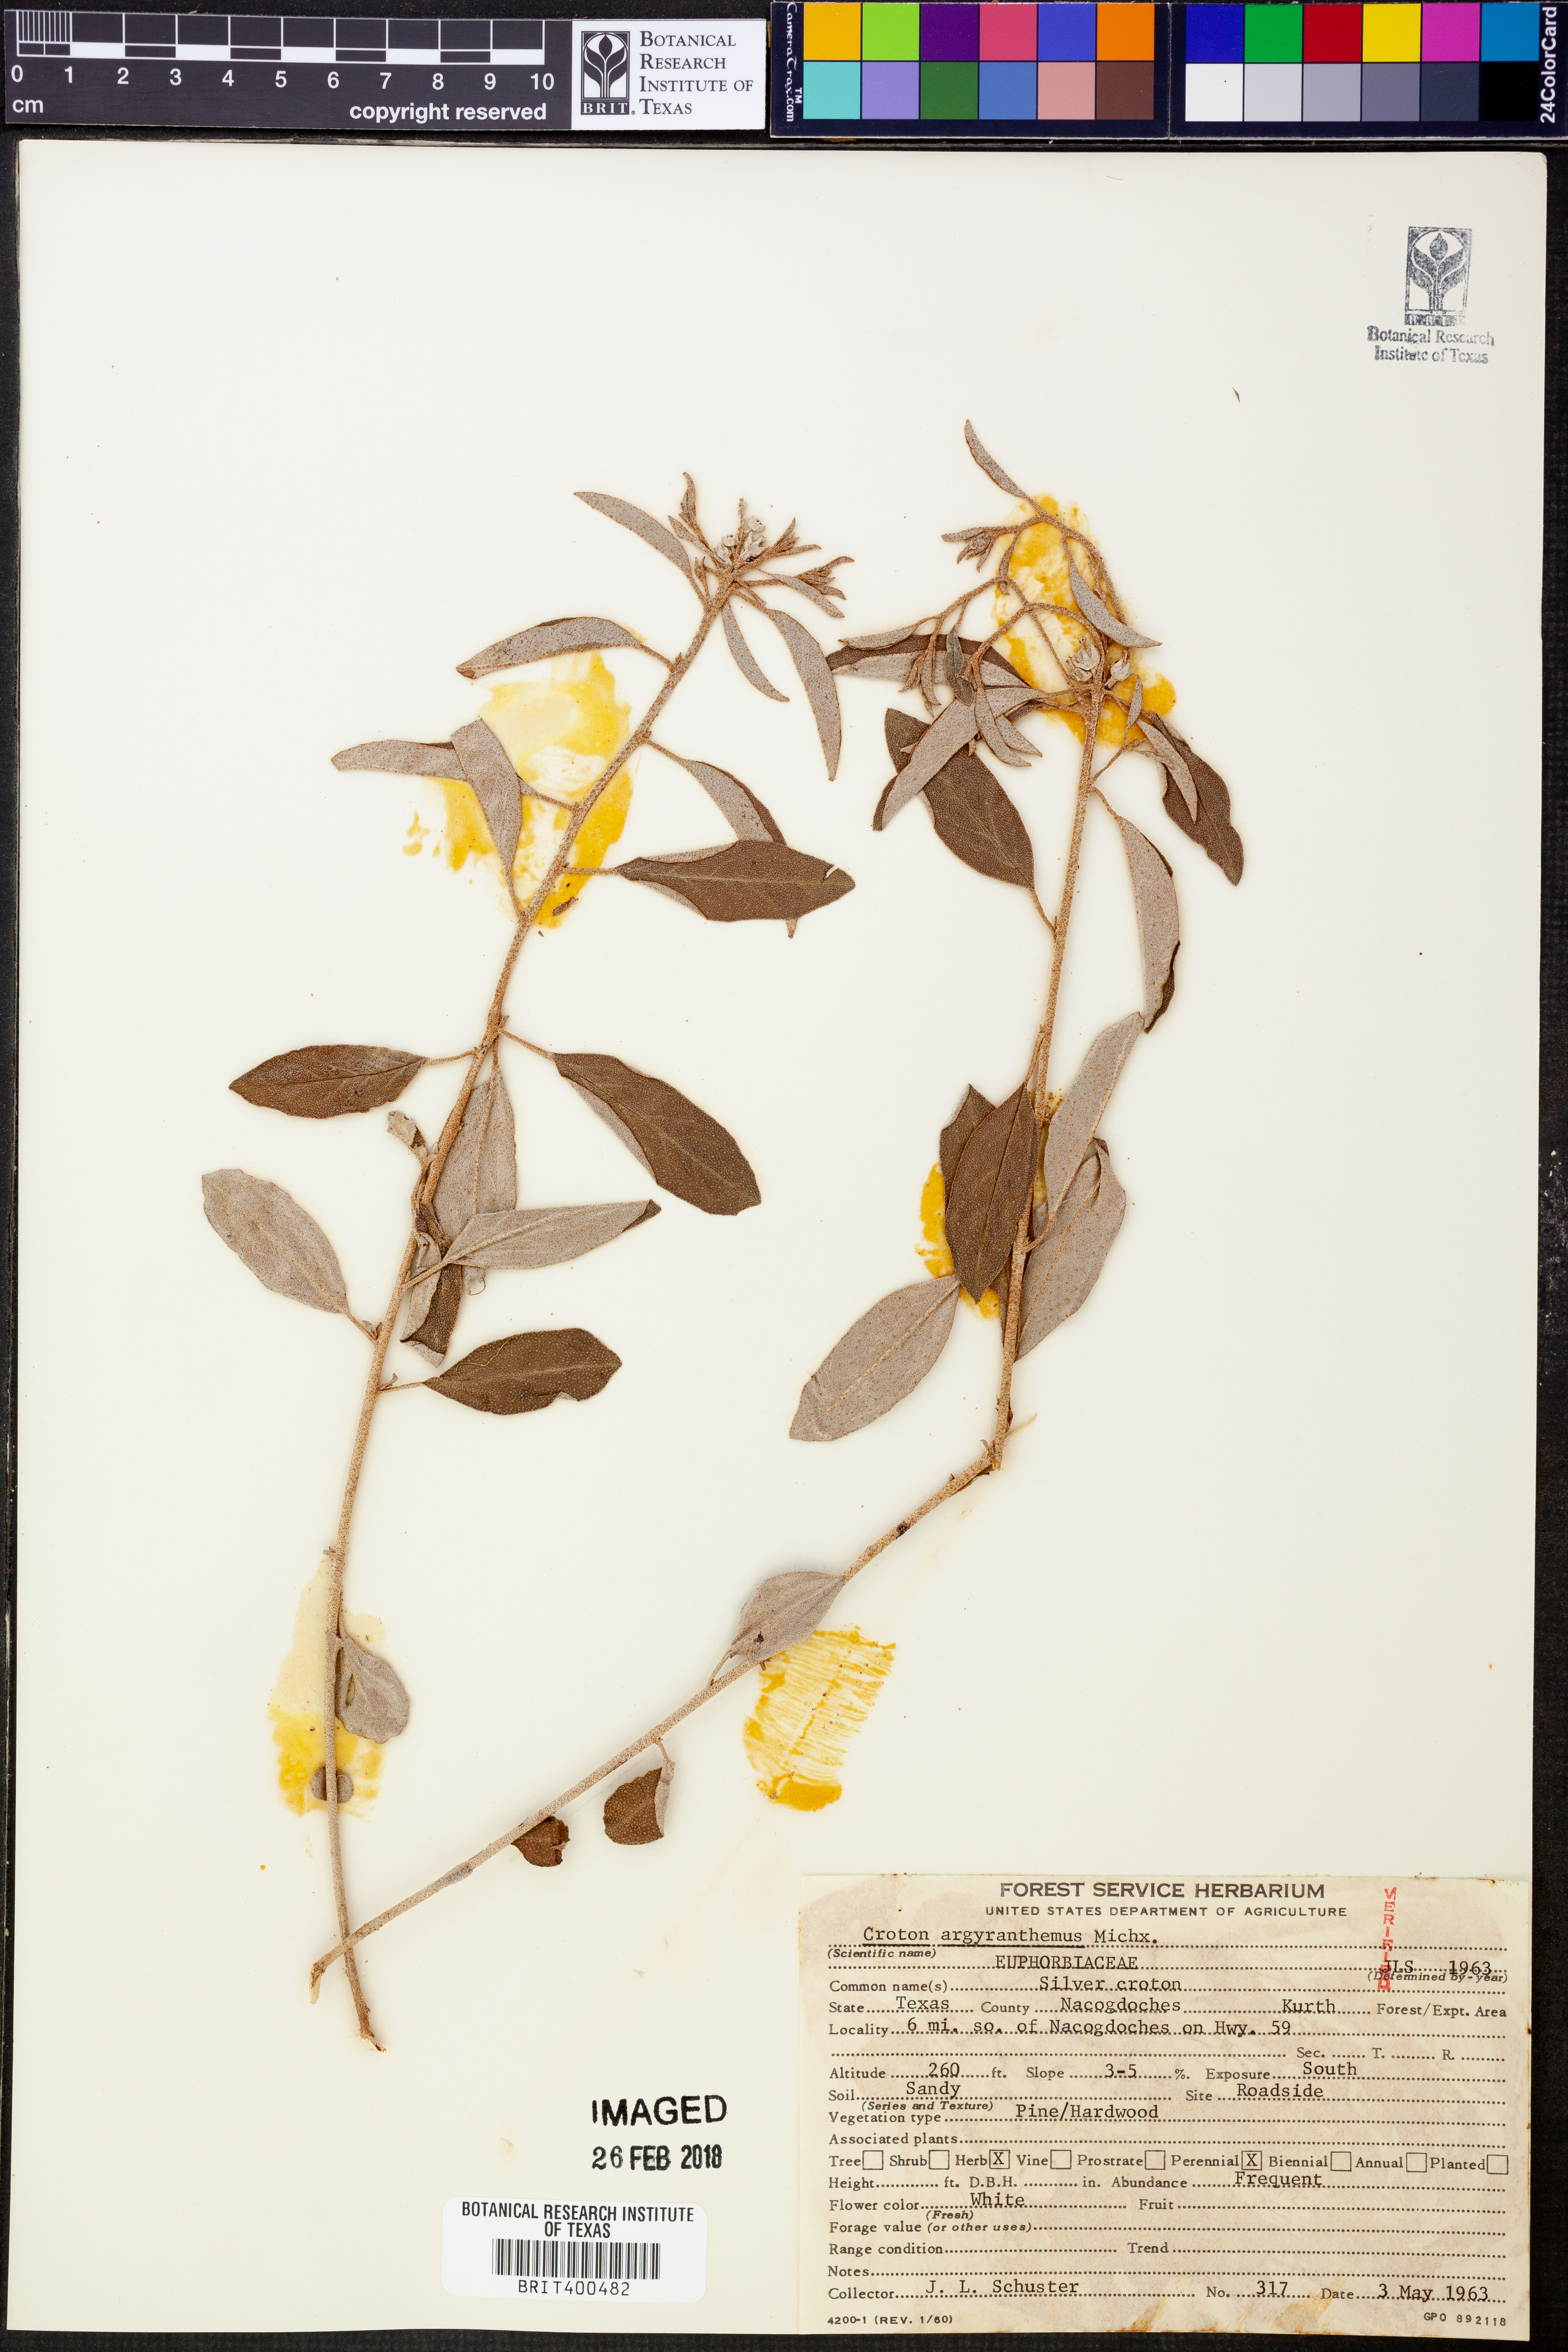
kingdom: Plantae
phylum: Tracheophyta
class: Magnoliopsida
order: Malpighiales
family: Euphorbiaceae
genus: Croton
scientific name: Croton argyranthemus
